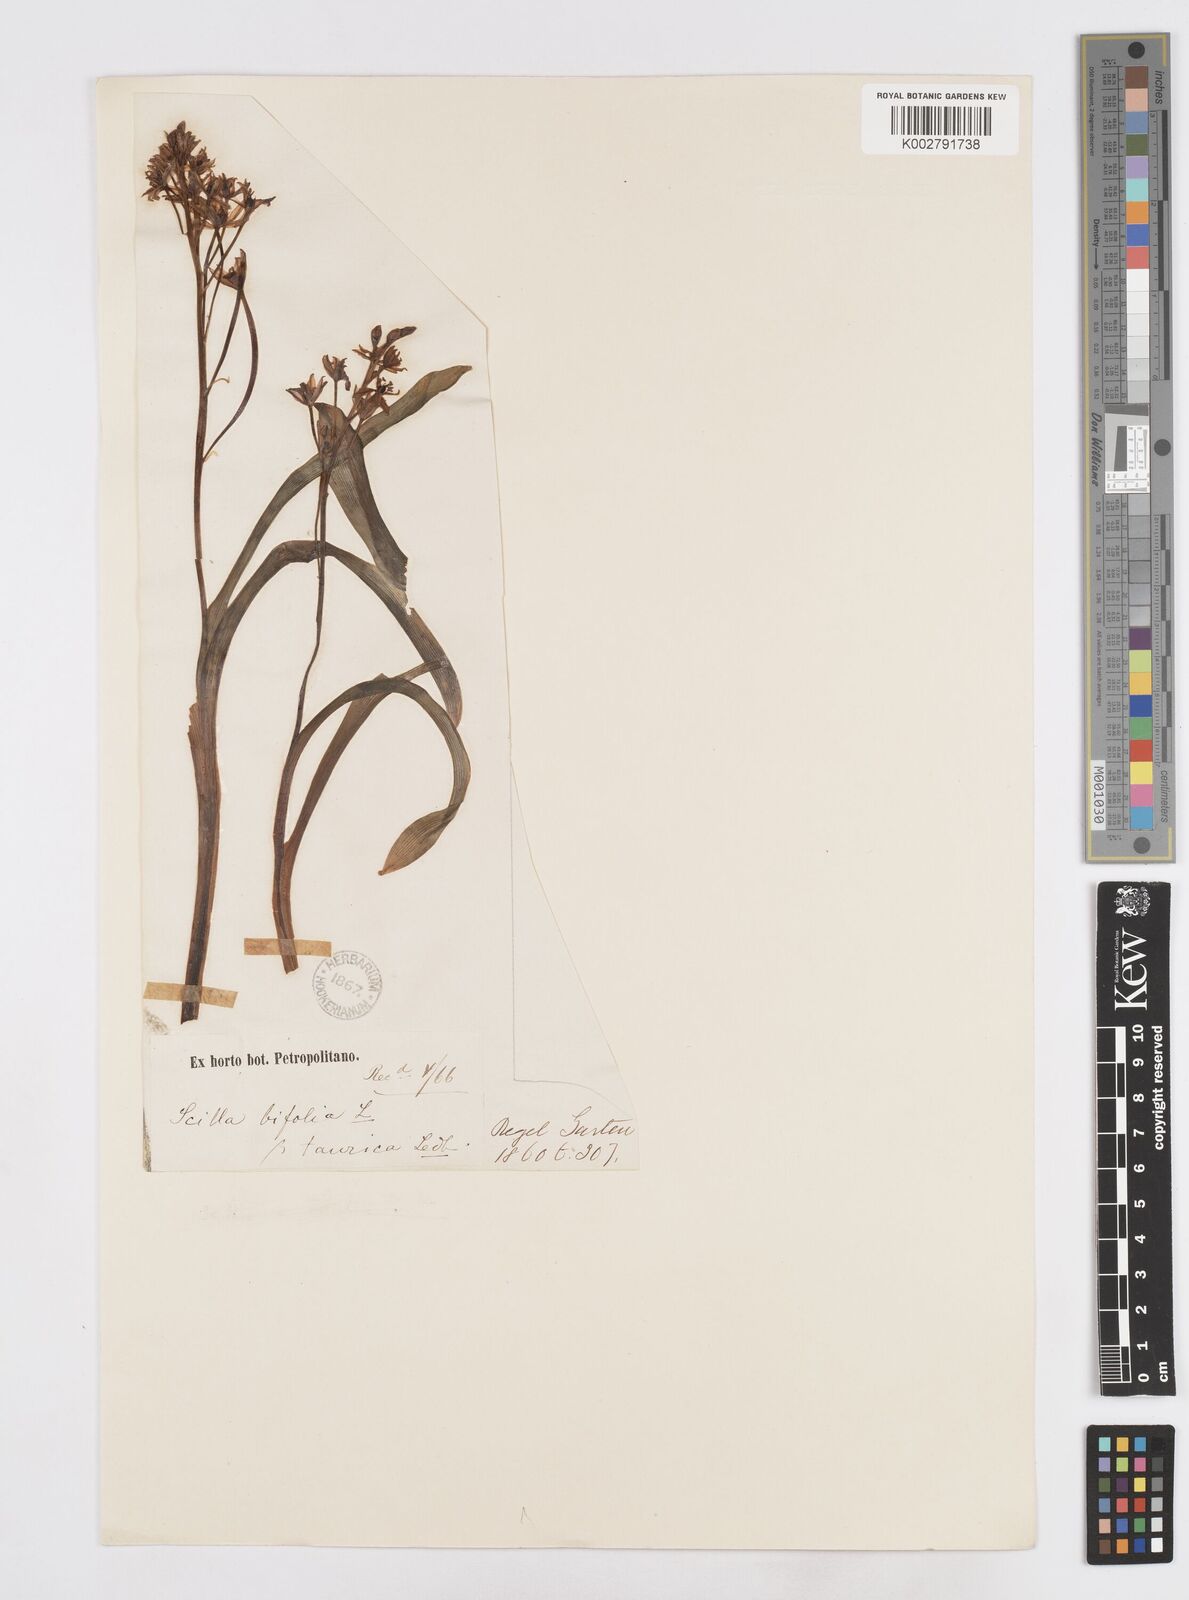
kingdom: Plantae
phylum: Tracheophyta
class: Liliopsida
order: Asparagales
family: Asparagaceae
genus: Scilla
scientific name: Scilla bifolia
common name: Alpine squill
